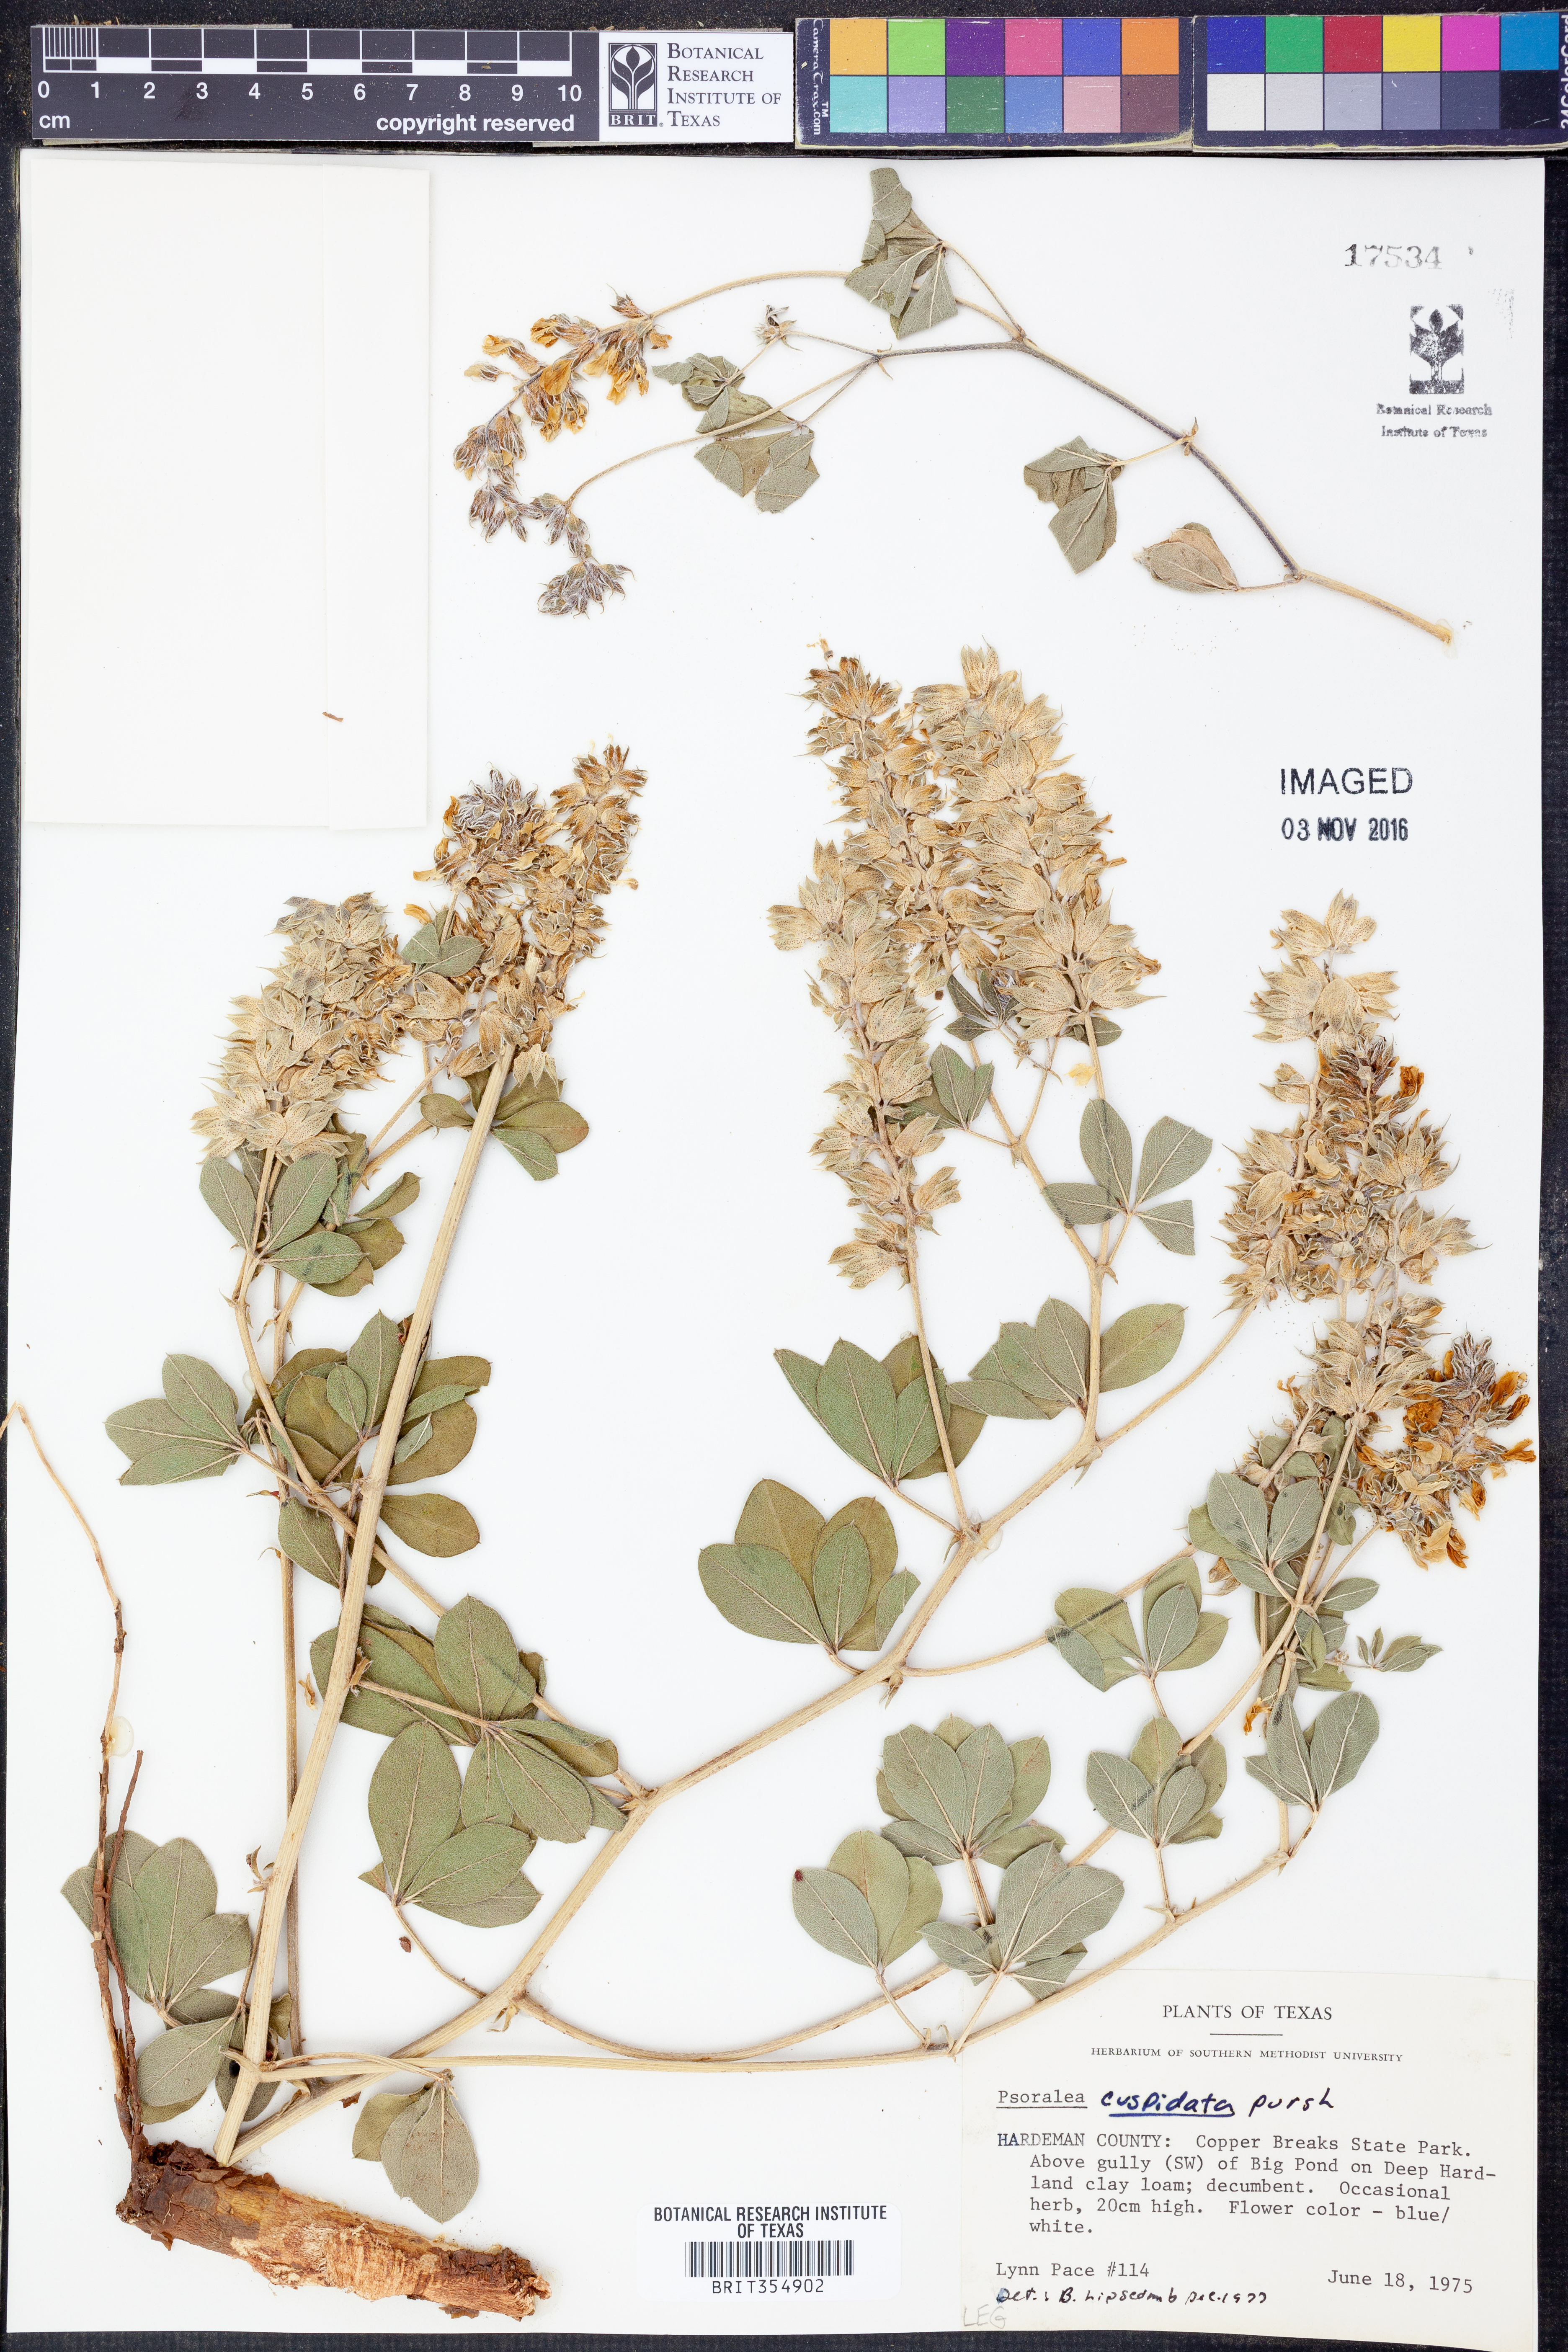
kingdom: Plantae
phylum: Tracheophyta
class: Magnoliopsida
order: Fabales
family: Fabaceae
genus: Pediomelum
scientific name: Pediomelum cuspidatum
